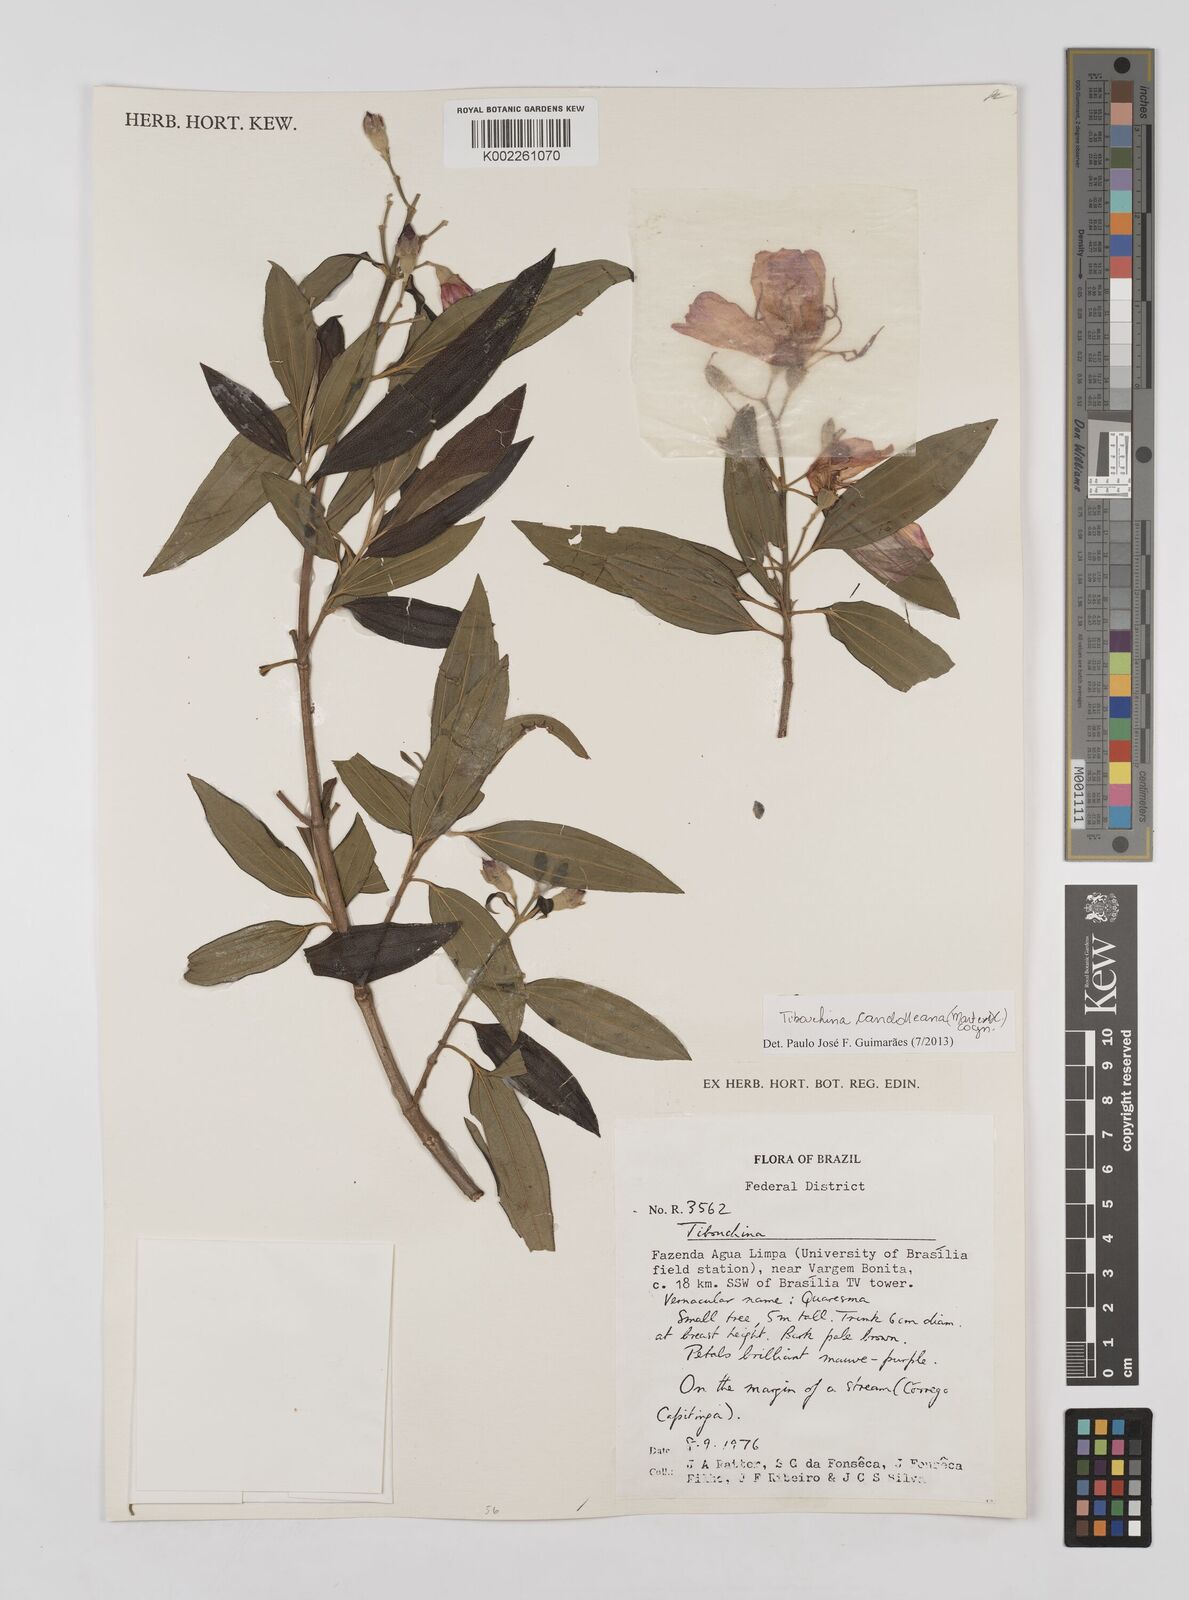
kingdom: Plantae
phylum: Tracheophyta
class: Magnoliopsida
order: Myrtales
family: Melastomataceae
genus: Pleroma
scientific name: Pleroma candolleanum
